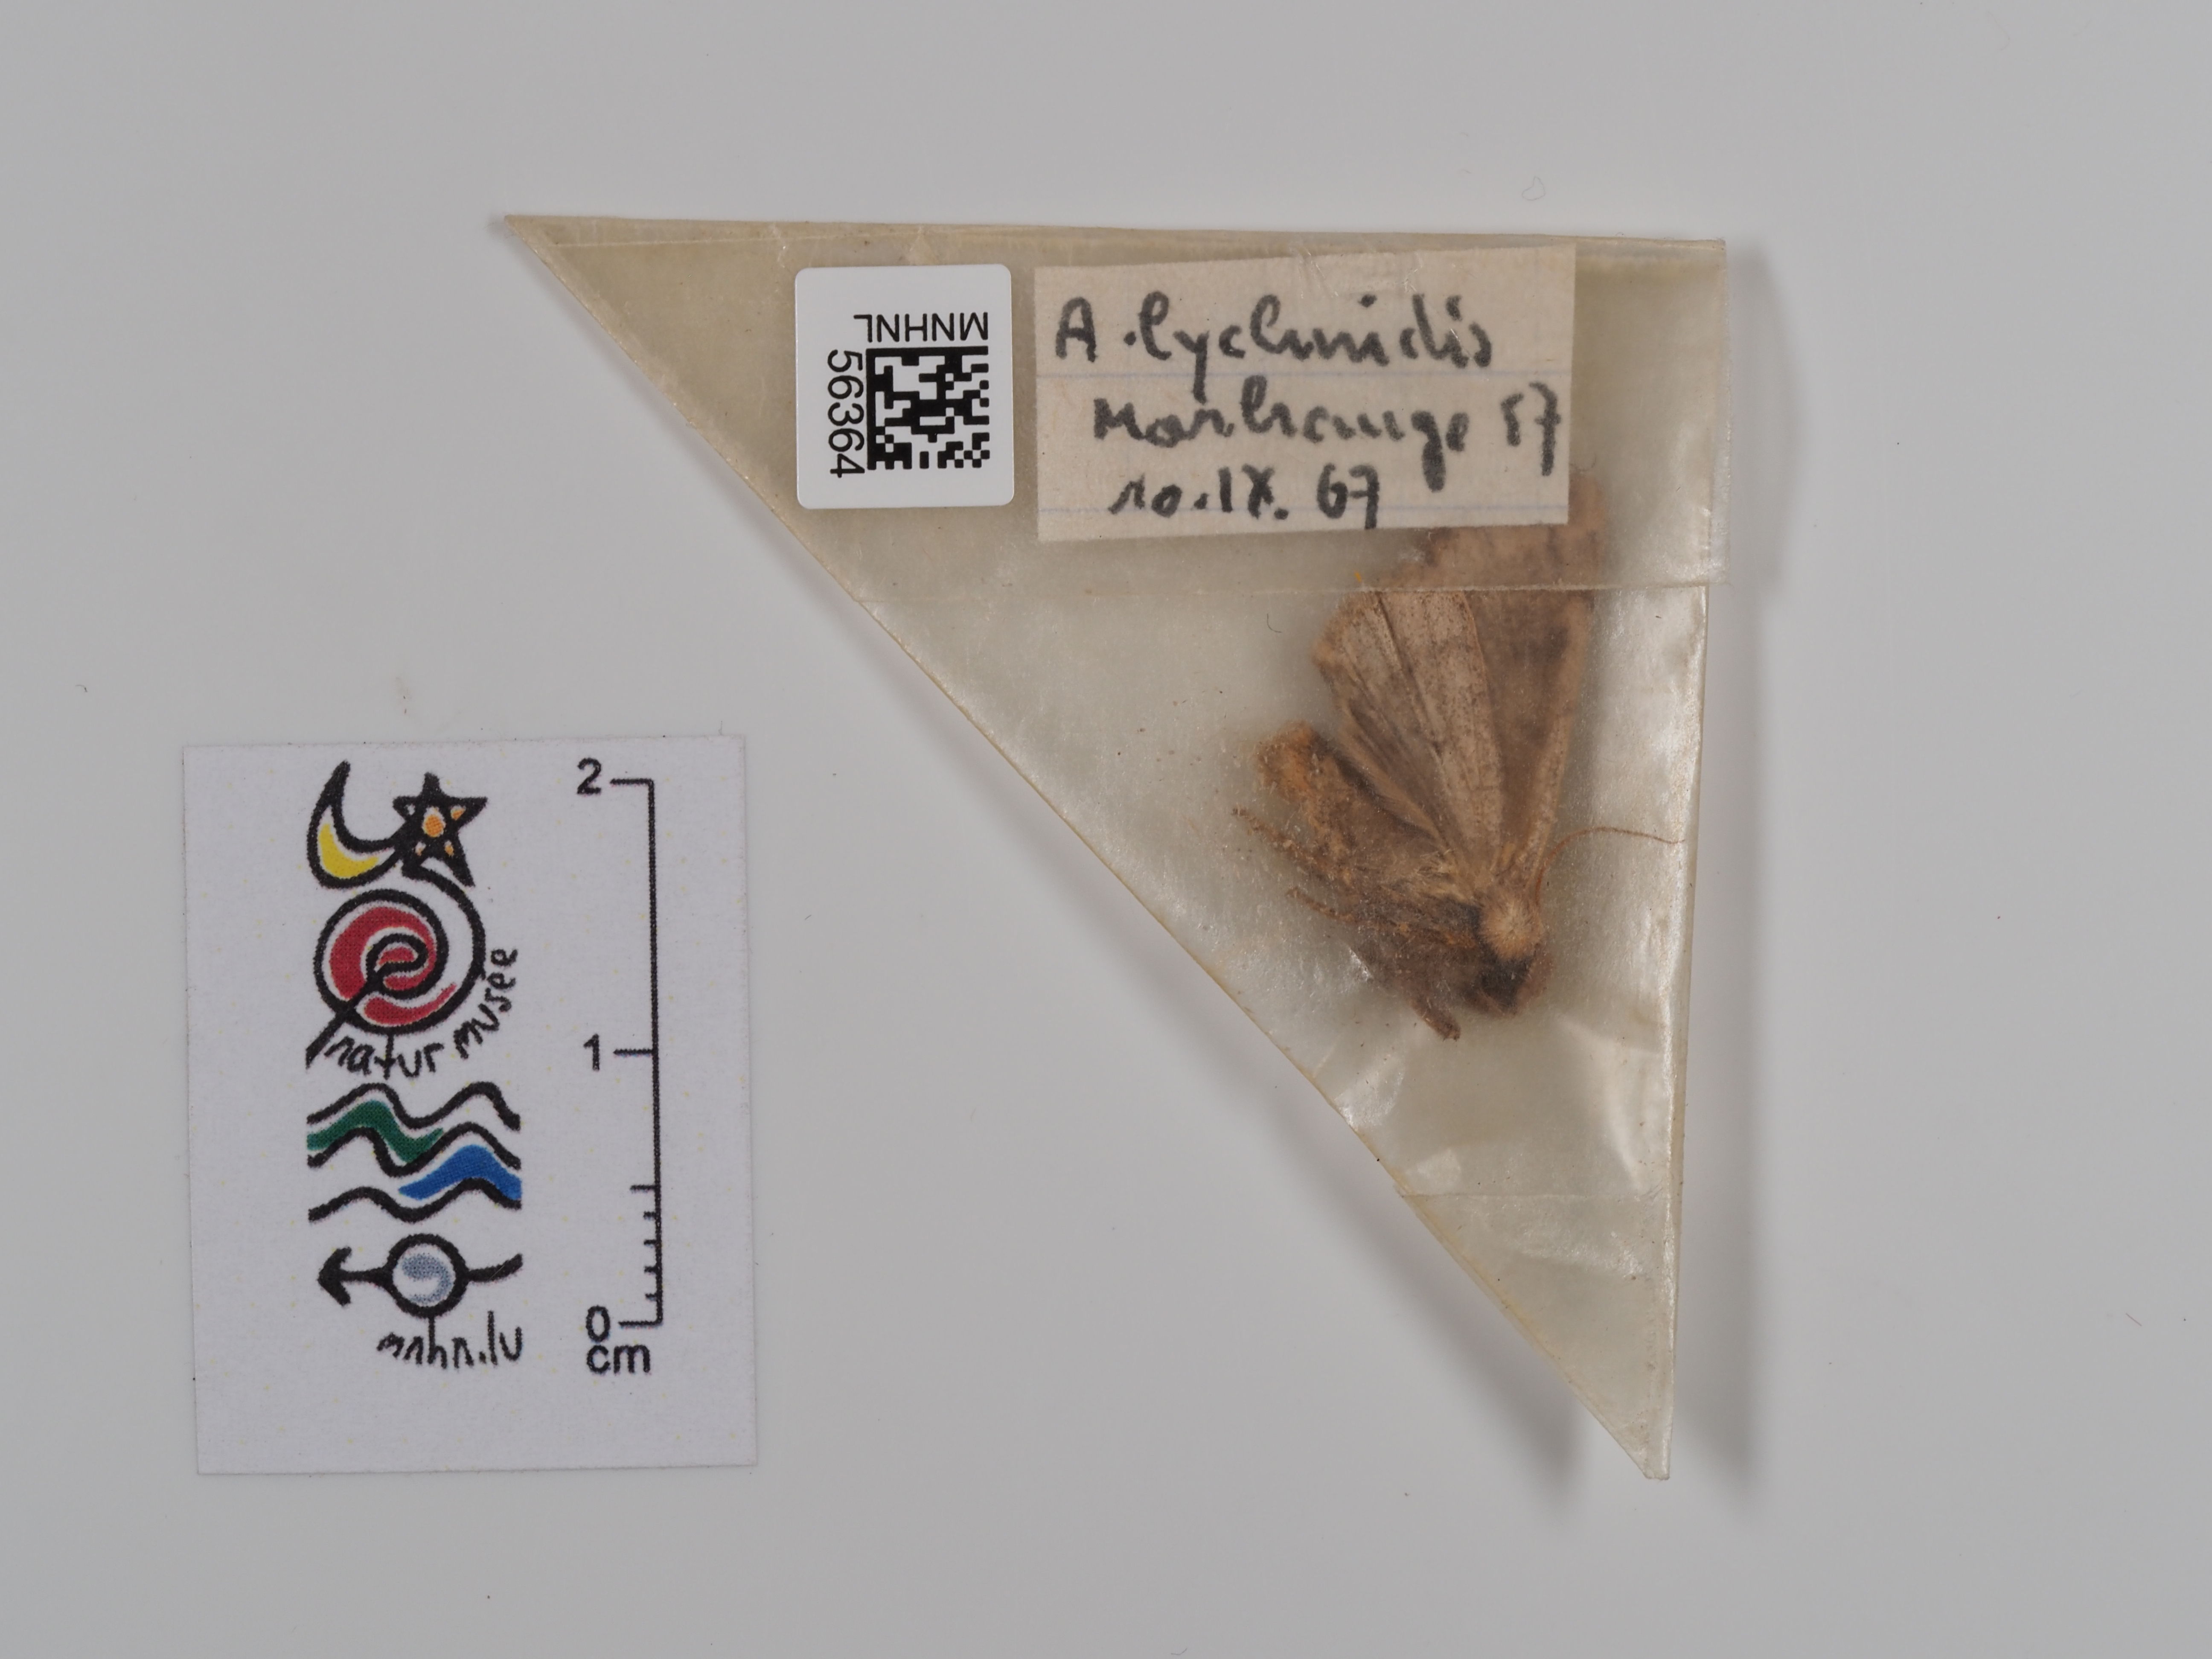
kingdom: Animalia
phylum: Arthropoda
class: Insecta
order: Lepidoptera
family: Noctuidae
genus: Agrochola
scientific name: Agrochola lychnidis
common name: Beaded chestnut
